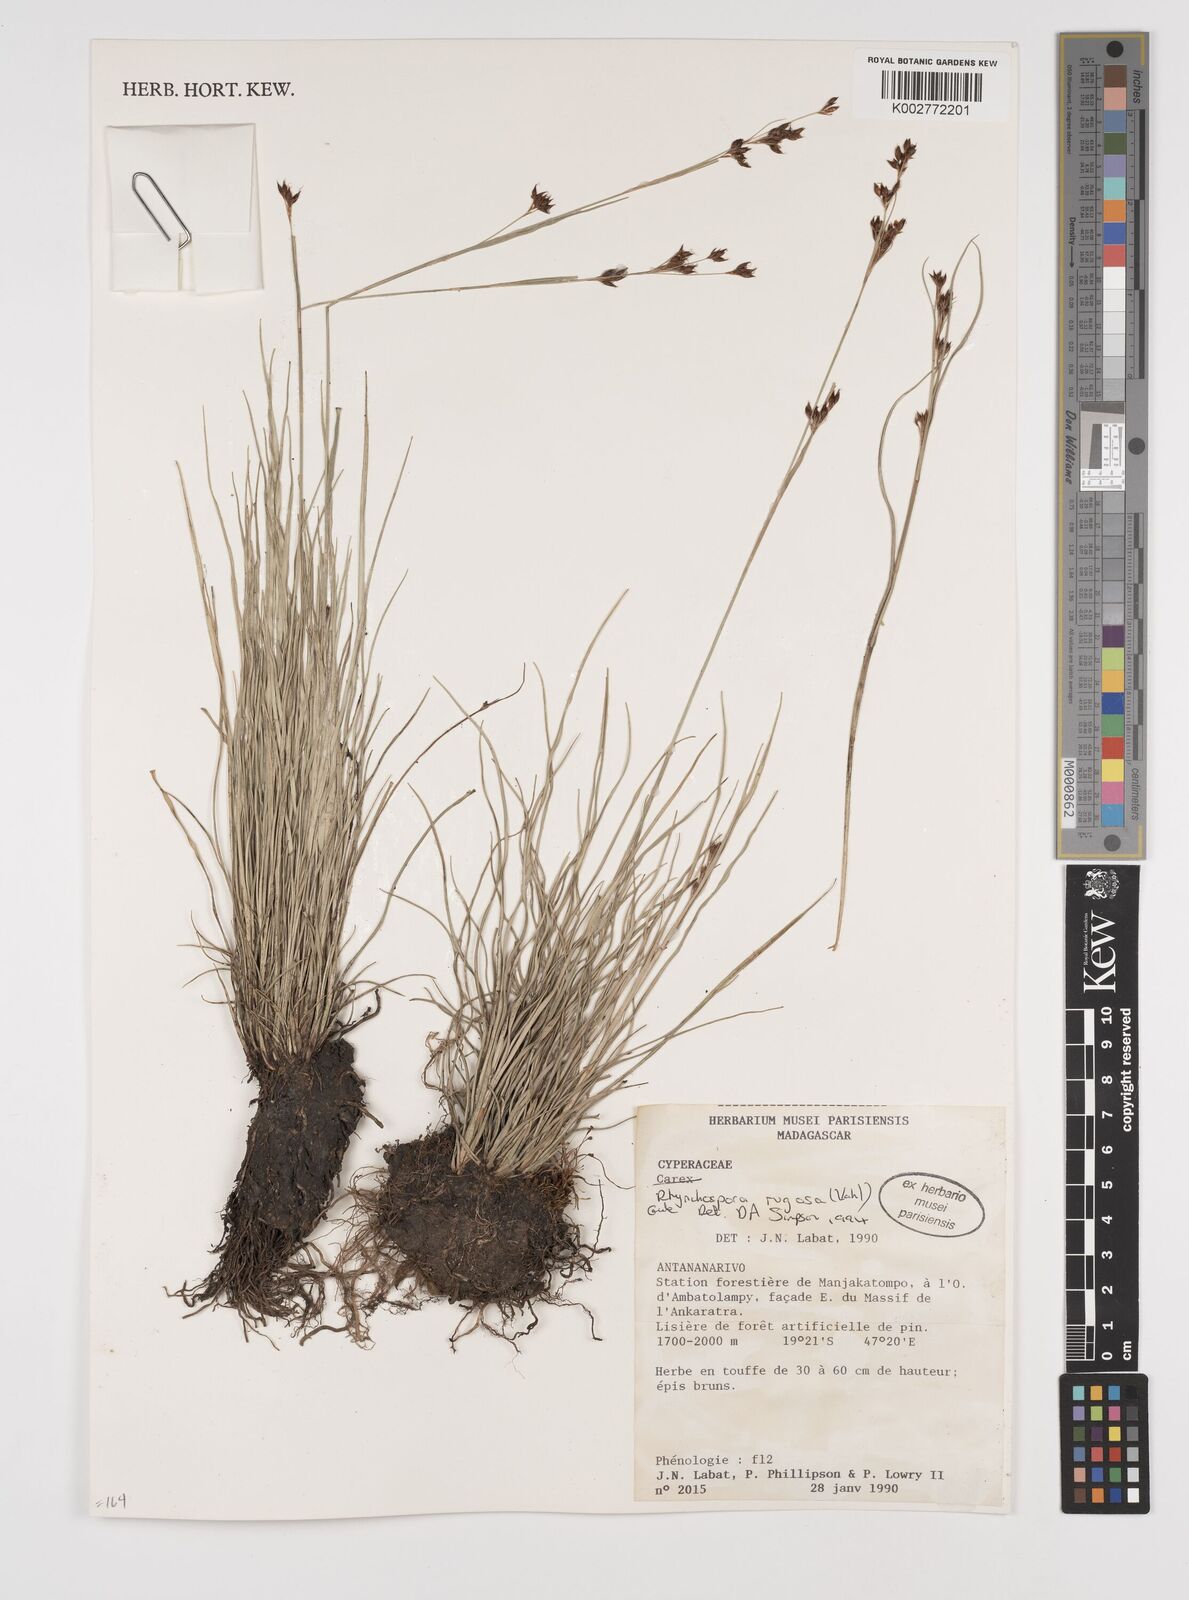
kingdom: Plantae
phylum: Tracheophyta
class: Liliopsida
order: Poales
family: Cyperaceae
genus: Rhynchospora
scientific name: Rhynchospora rugosa
